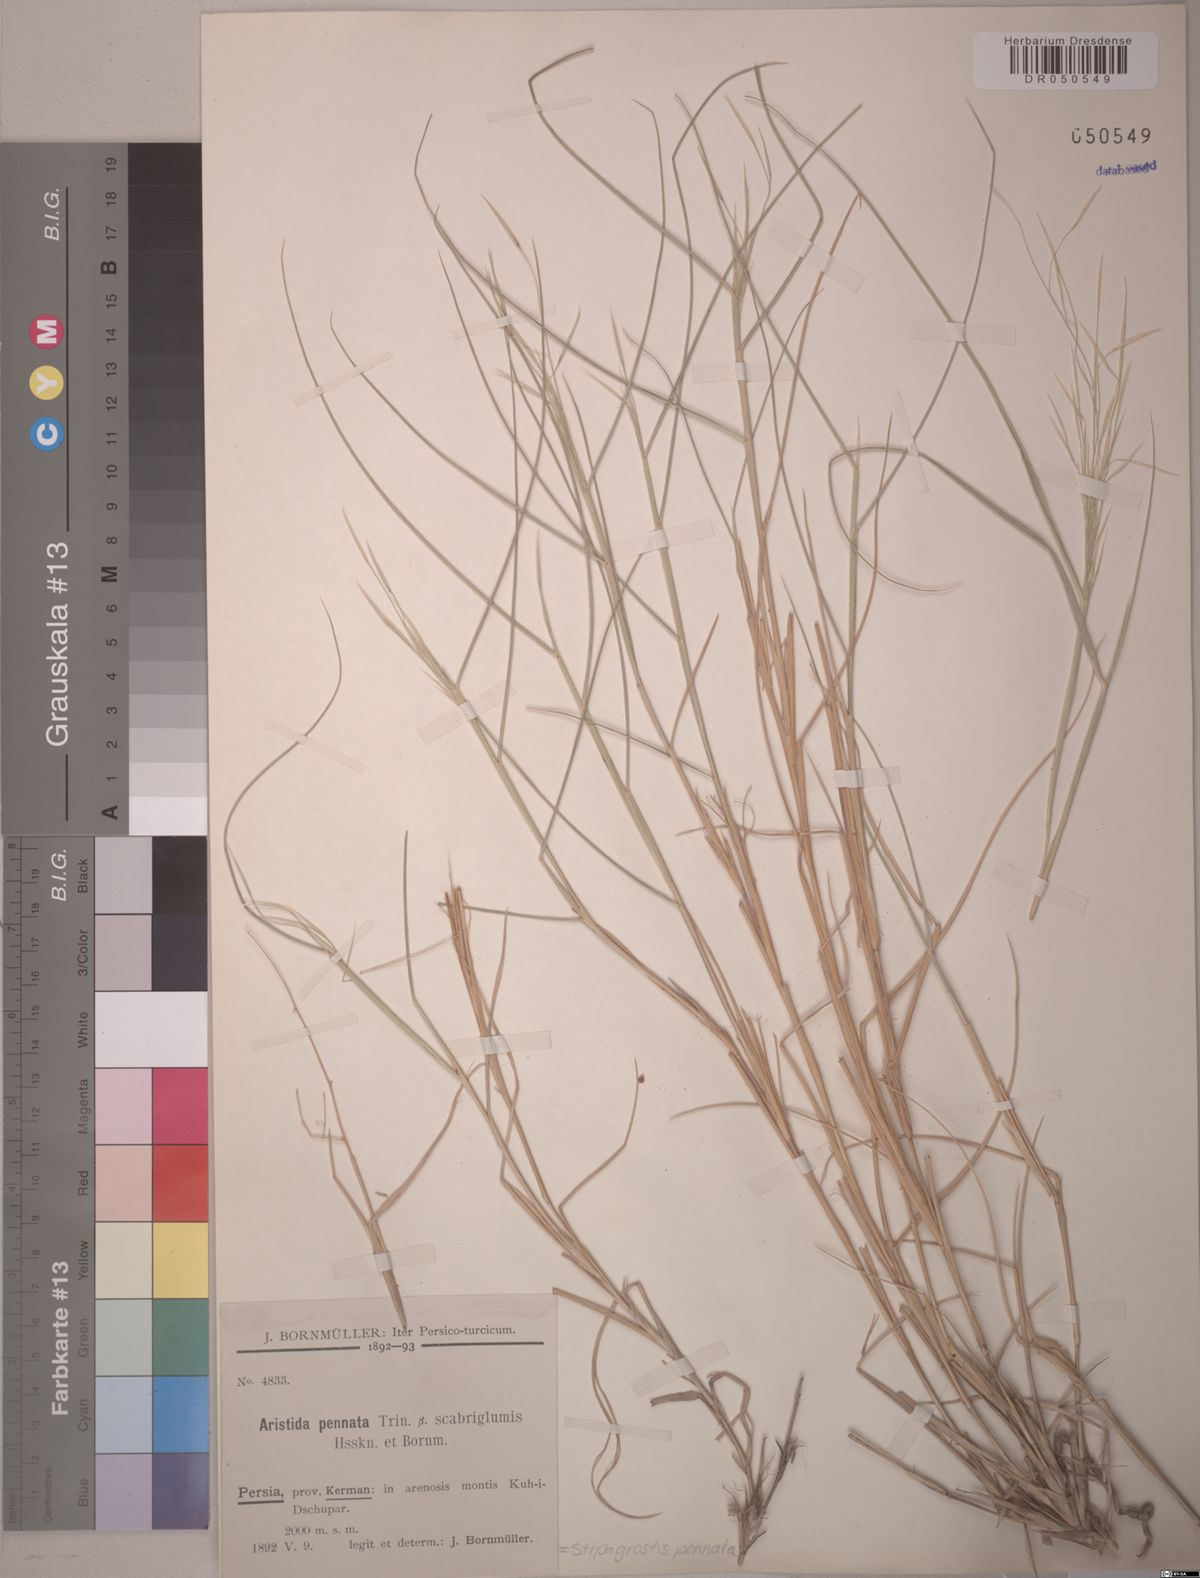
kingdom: Plantae
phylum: Tracheophyta
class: Liliopsida
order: Poales
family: Poaceae
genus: Stipagrostis
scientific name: Stipagrostis pennata
